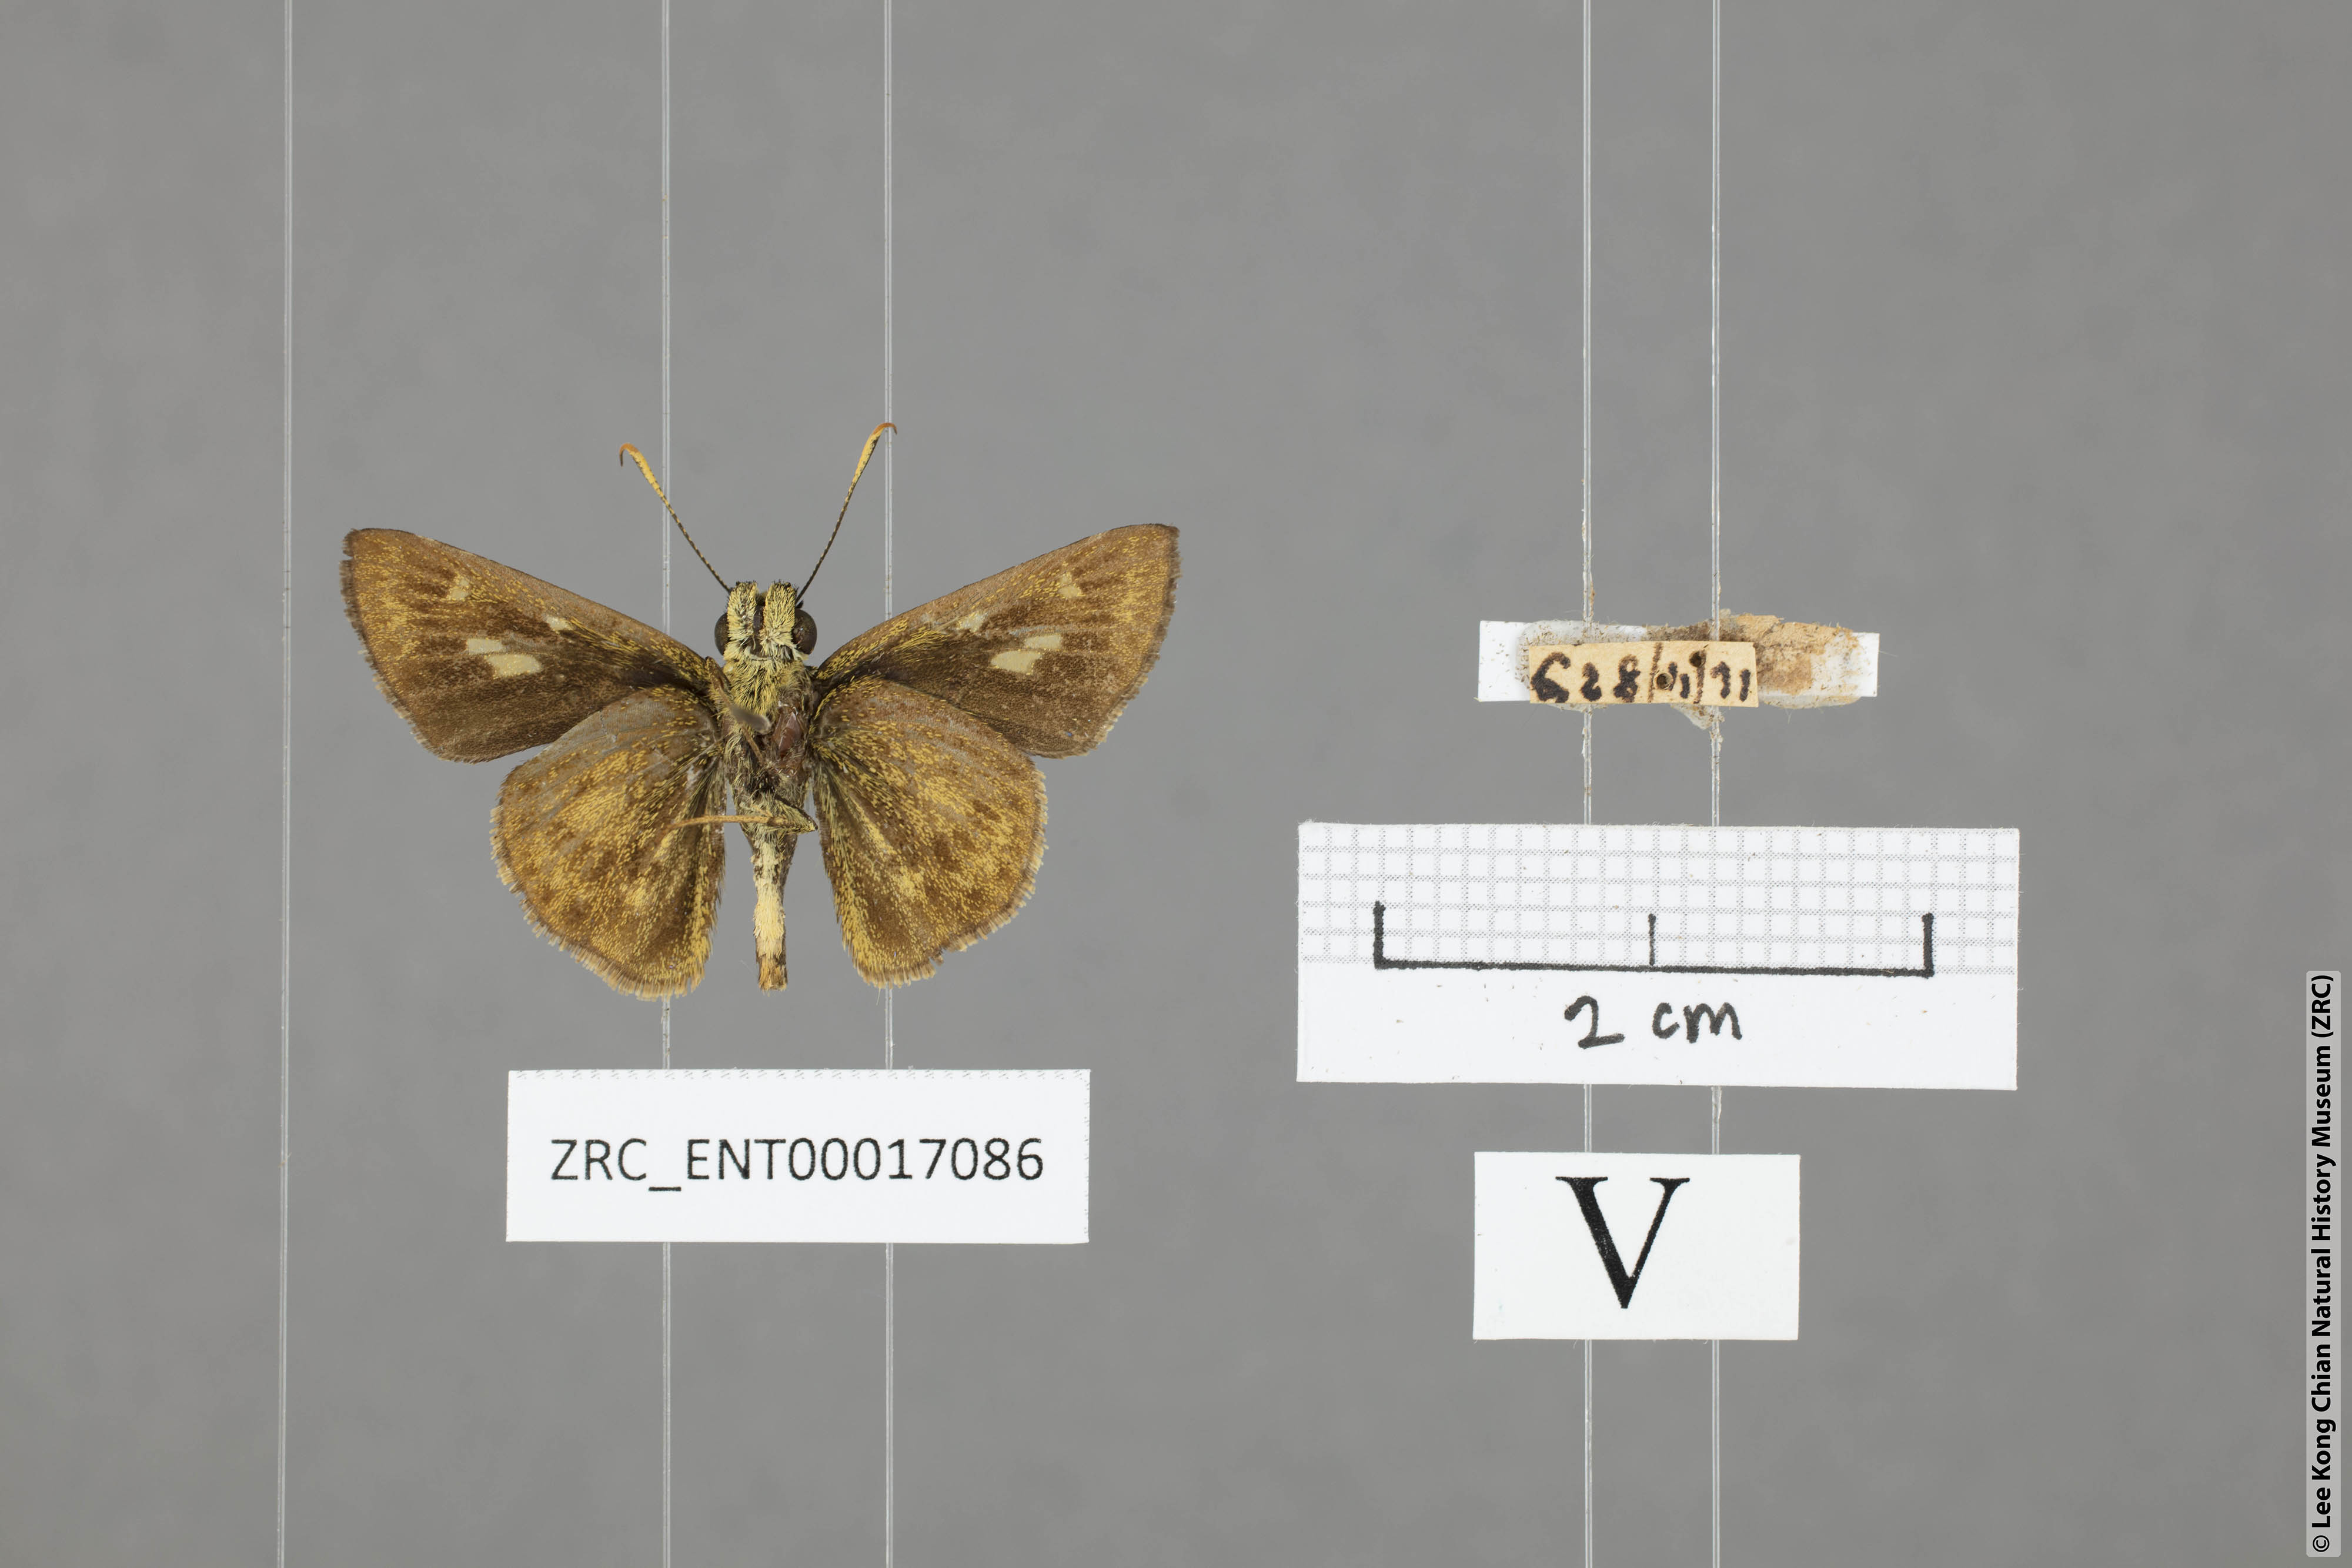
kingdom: Animalia
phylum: Arthropoda
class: Insecta
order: Lepidoptera
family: Hesperiidae
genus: Halpe
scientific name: Halpe veluvana
